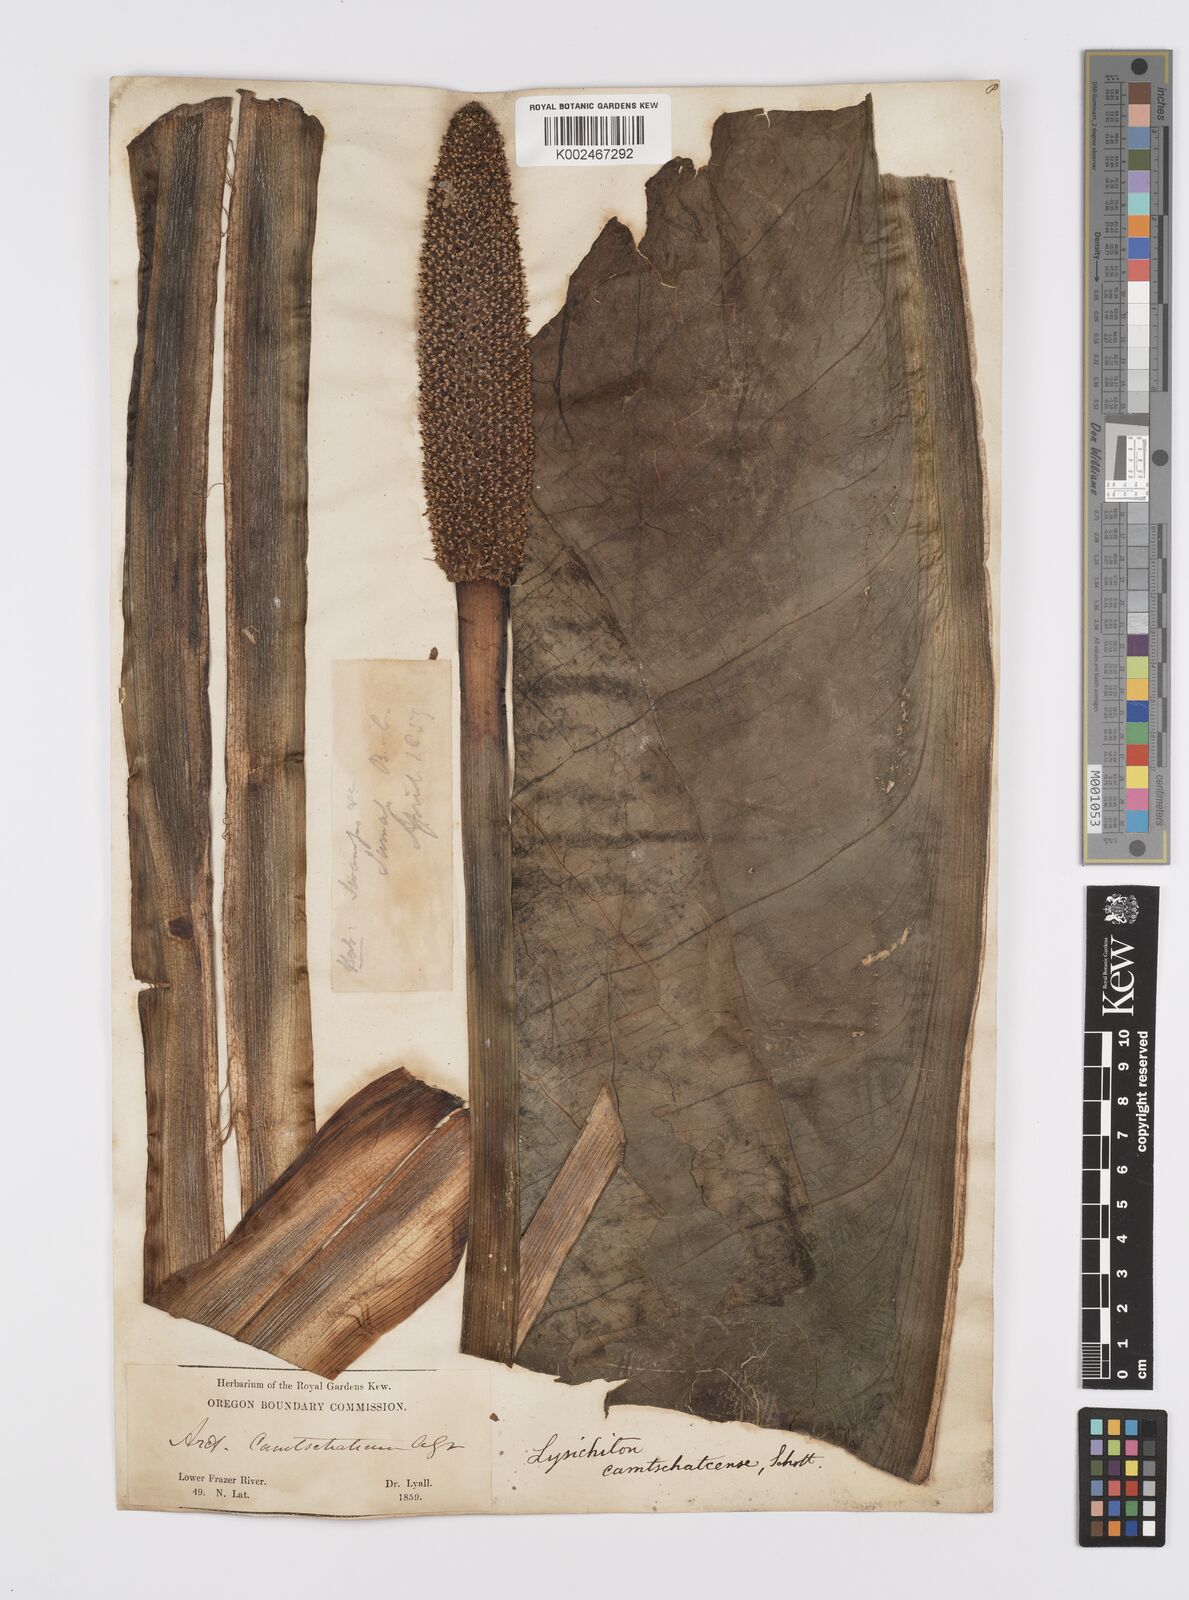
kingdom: Plantae
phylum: Tracheophyta
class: Liliopsida
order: Alismatales
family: Araceae
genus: Lysichiton
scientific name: Lysichiton americanus
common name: American skunk cabbage
